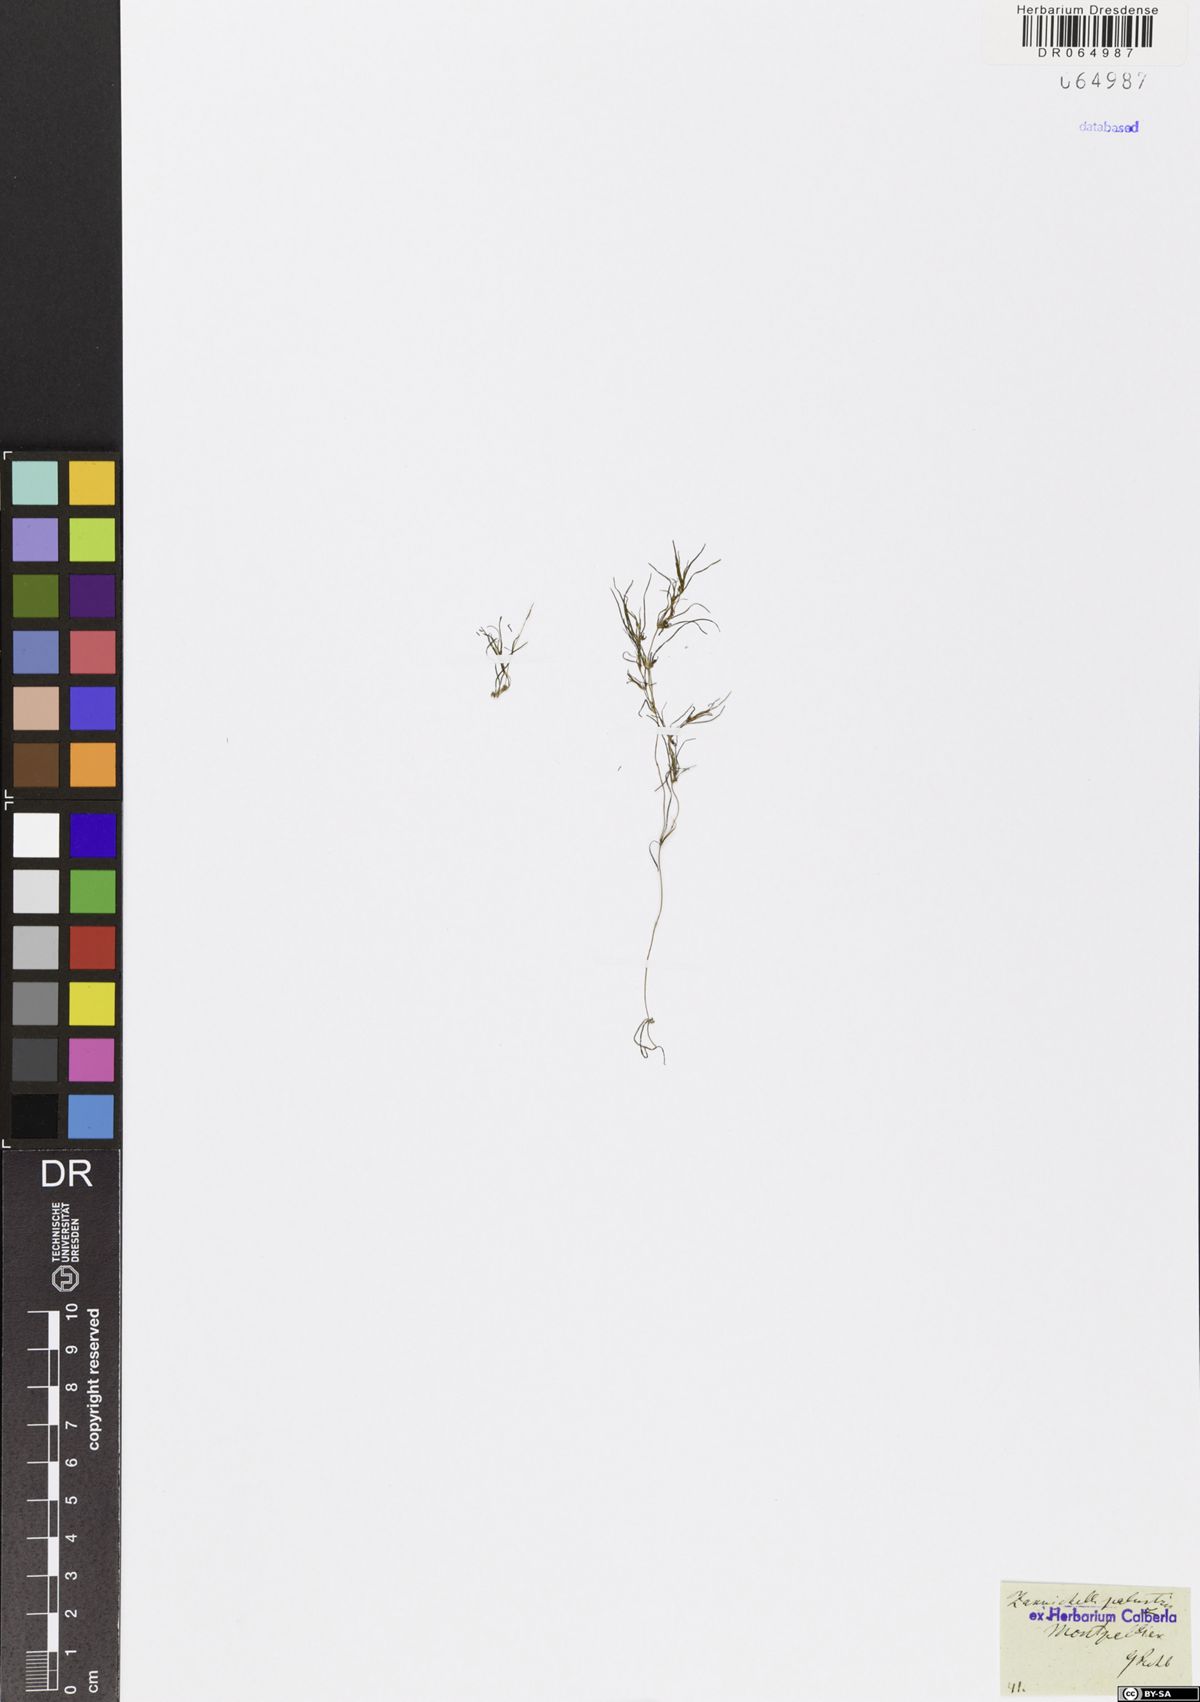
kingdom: Plantae
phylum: Tracheophyta
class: Liliopsida
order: Alismatales
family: Potamogetonaceae
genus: Zannichellia
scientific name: Zannichellia palustris
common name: Horned pondweed
